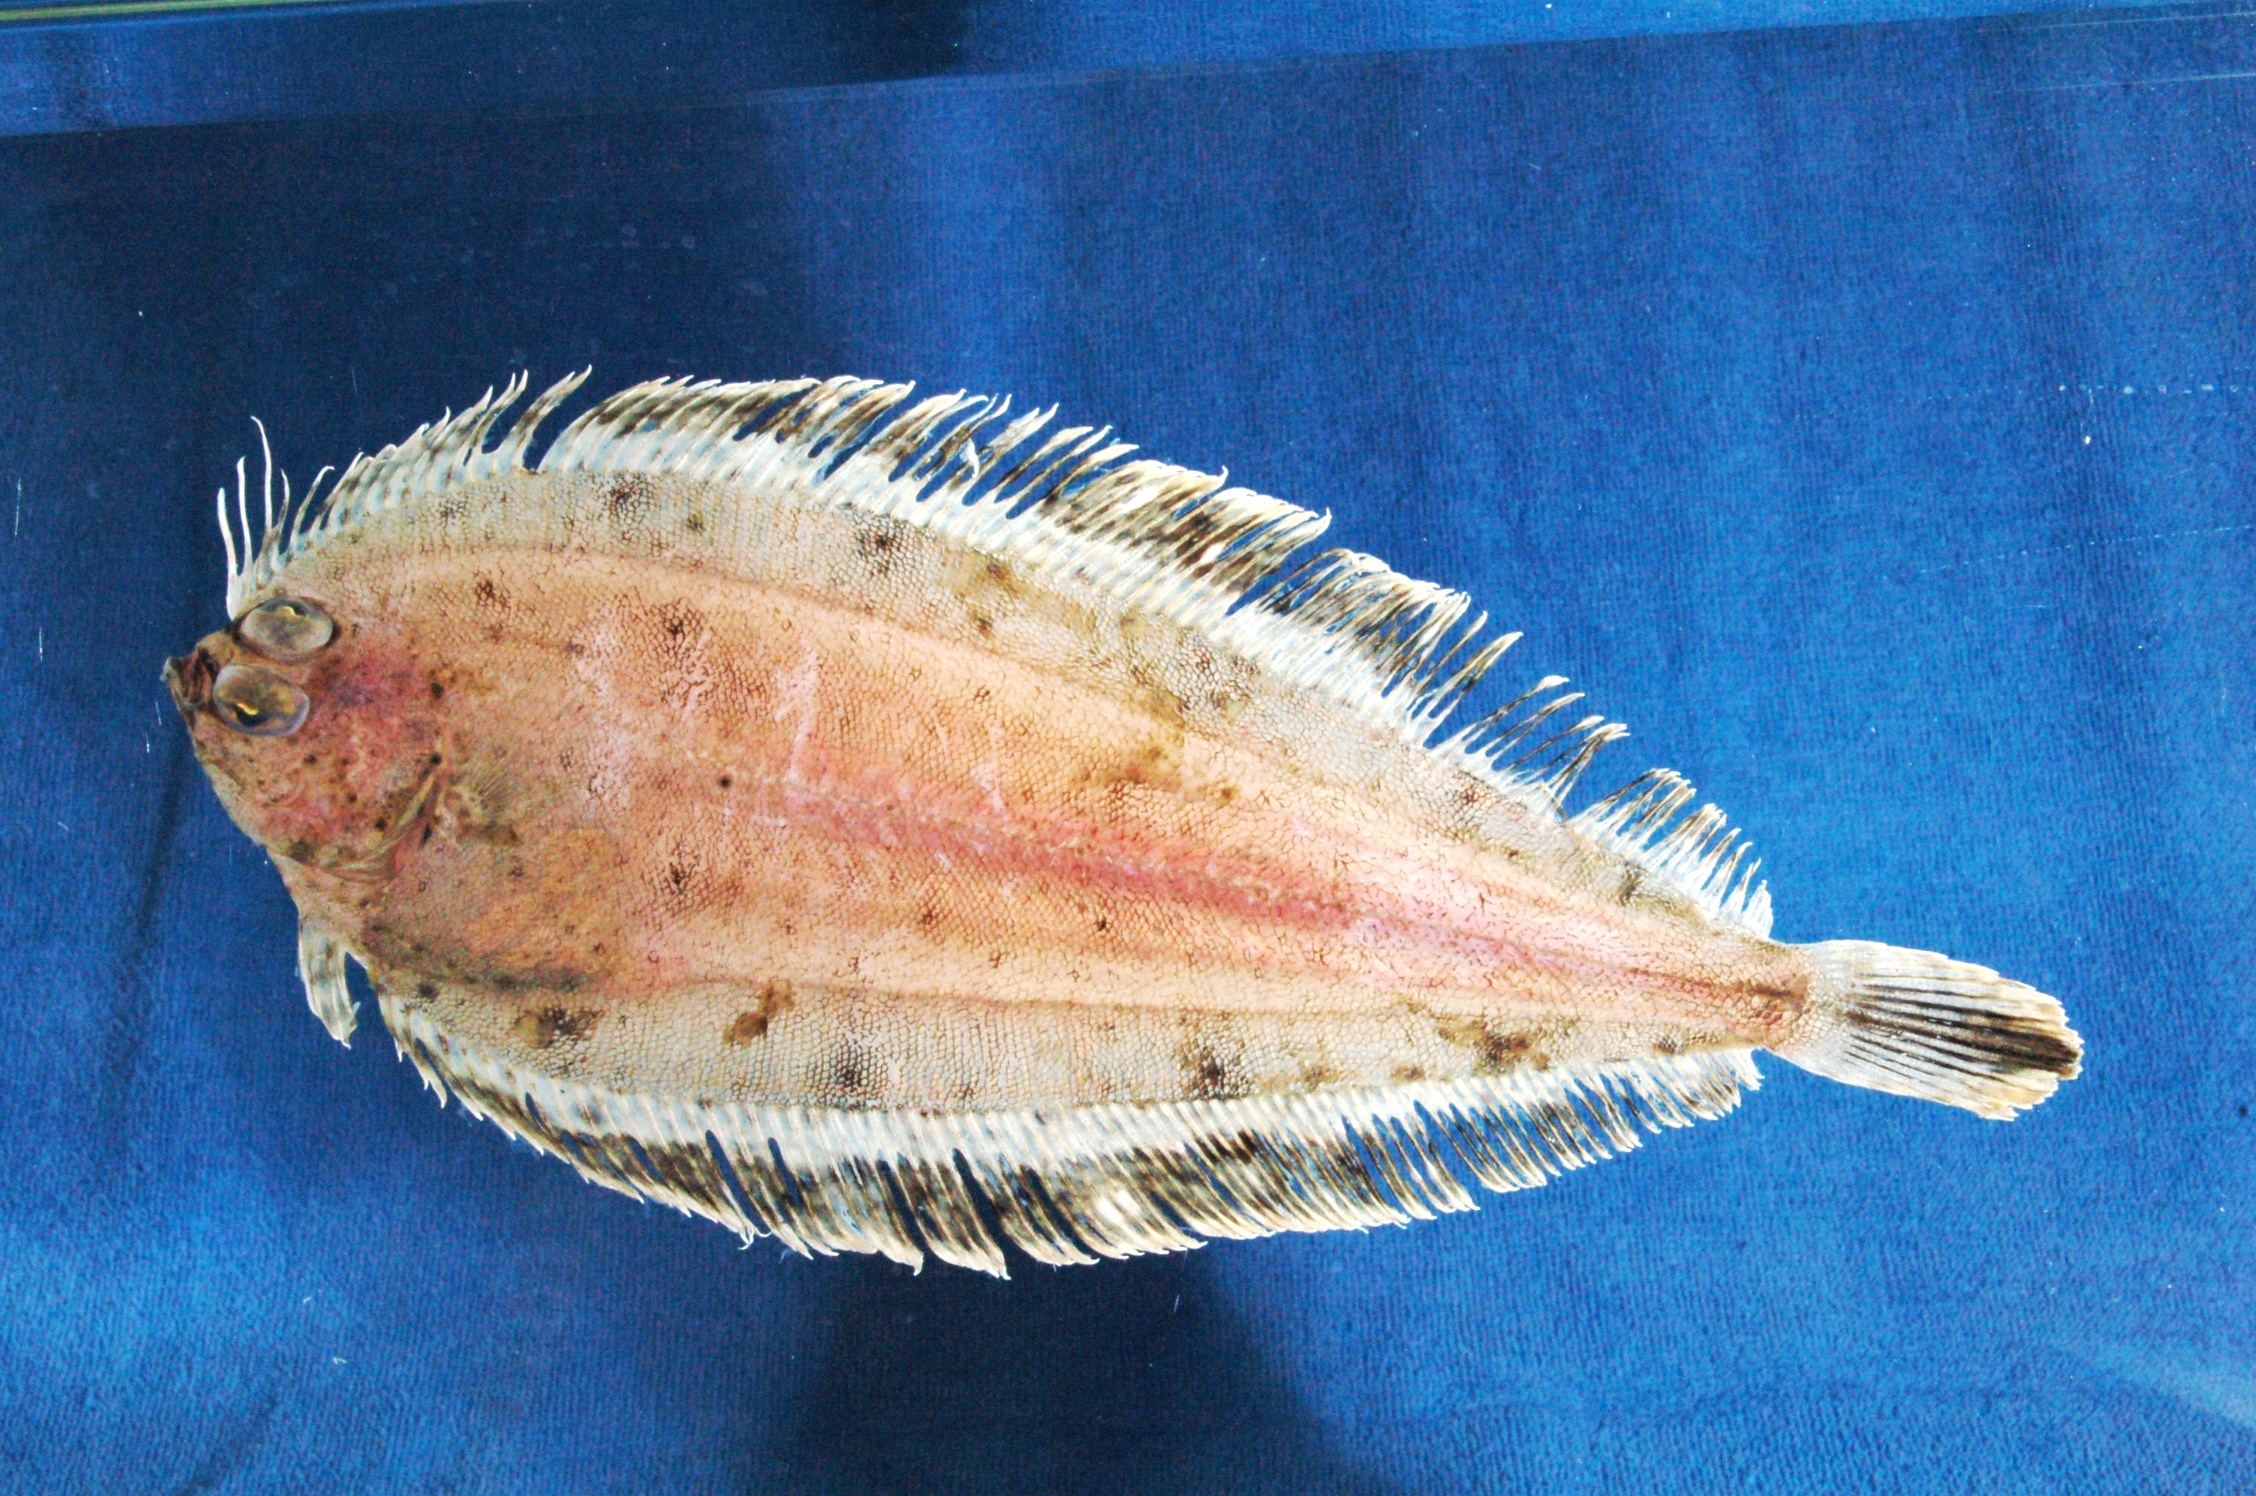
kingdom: Animalia
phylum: Chordata
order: Pleuronectiformes
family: Bothidae
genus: Laeops
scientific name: Laeops nigromaculatus
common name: Blackspotted flounder
